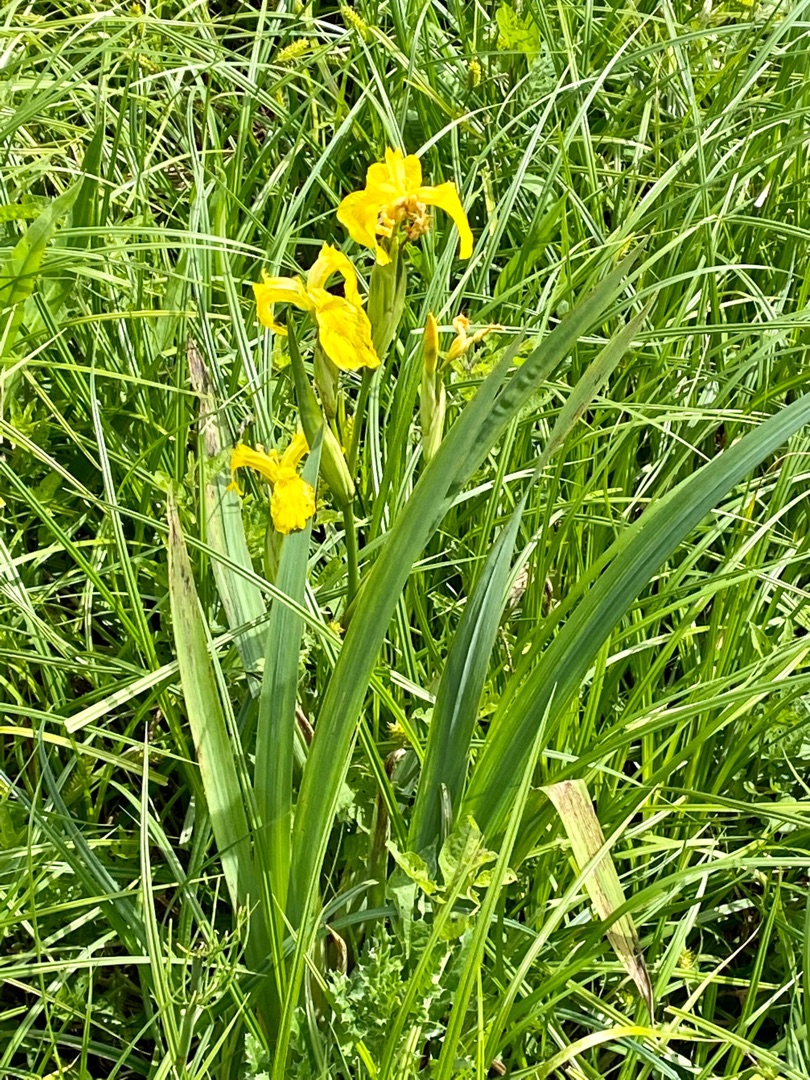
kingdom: Plantae
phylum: Tracheophyta
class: Liliopsida
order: Asparagales
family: Iridaceae
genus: Iris
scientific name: Iris pseudacorus
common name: Gul iris
